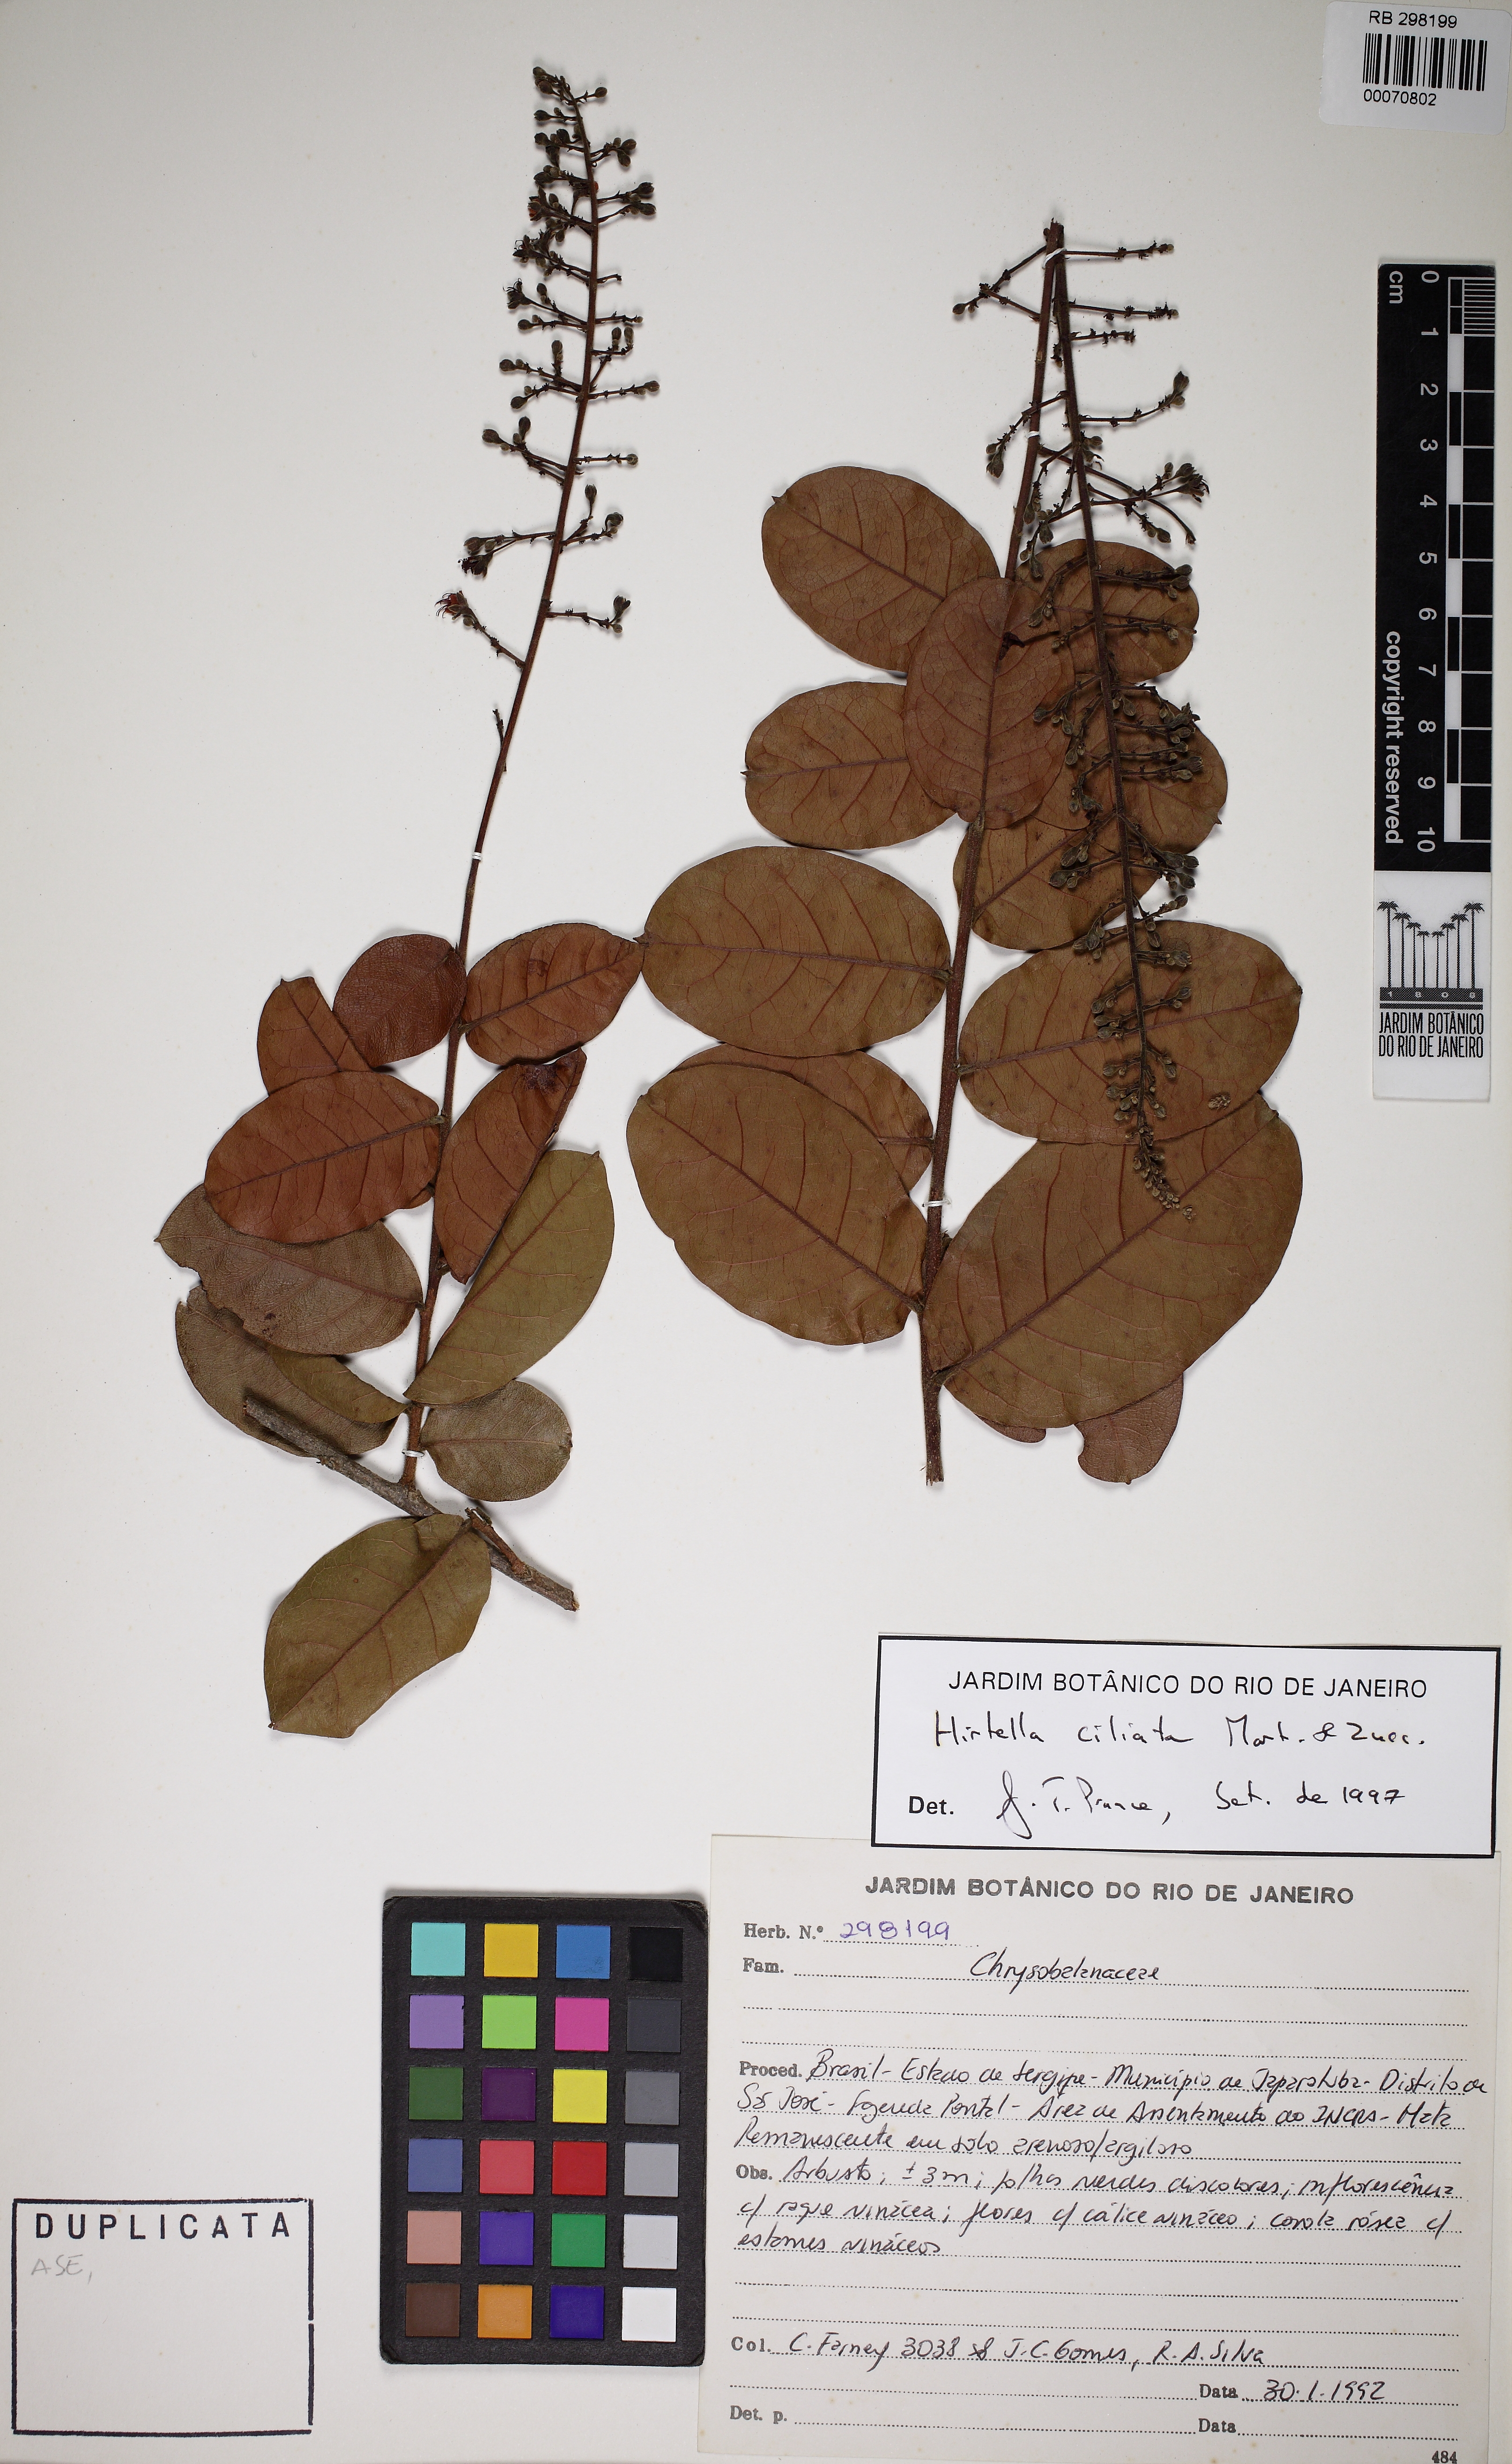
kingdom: Plantae
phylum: Tracheophyta
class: Magnoliopsida
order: Malpighiales
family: Chrysobalanaceae
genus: Hirtella
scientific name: Hirtella ciliata
